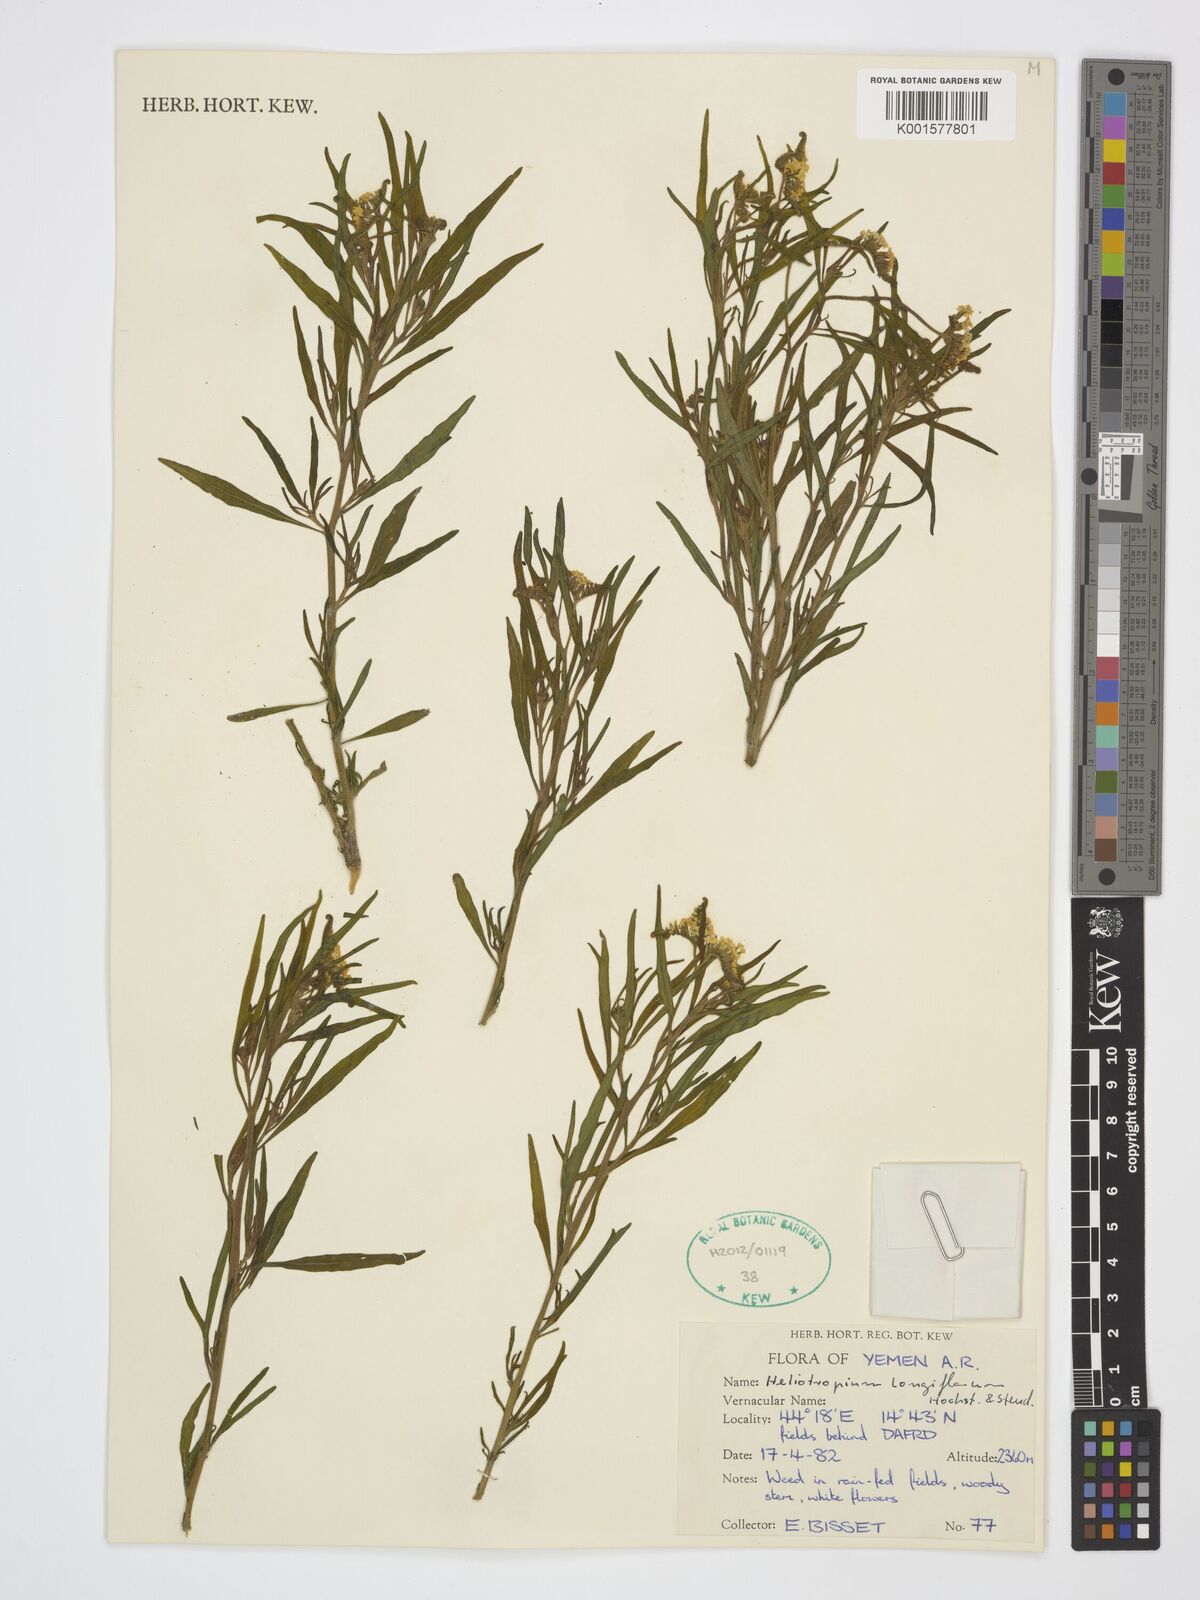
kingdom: Plantae
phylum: Tracheophyta
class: Magnoliopsida
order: Boraginales
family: Heliotropiaceae
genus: Heliotropium
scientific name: Heliotropium longiflorum
